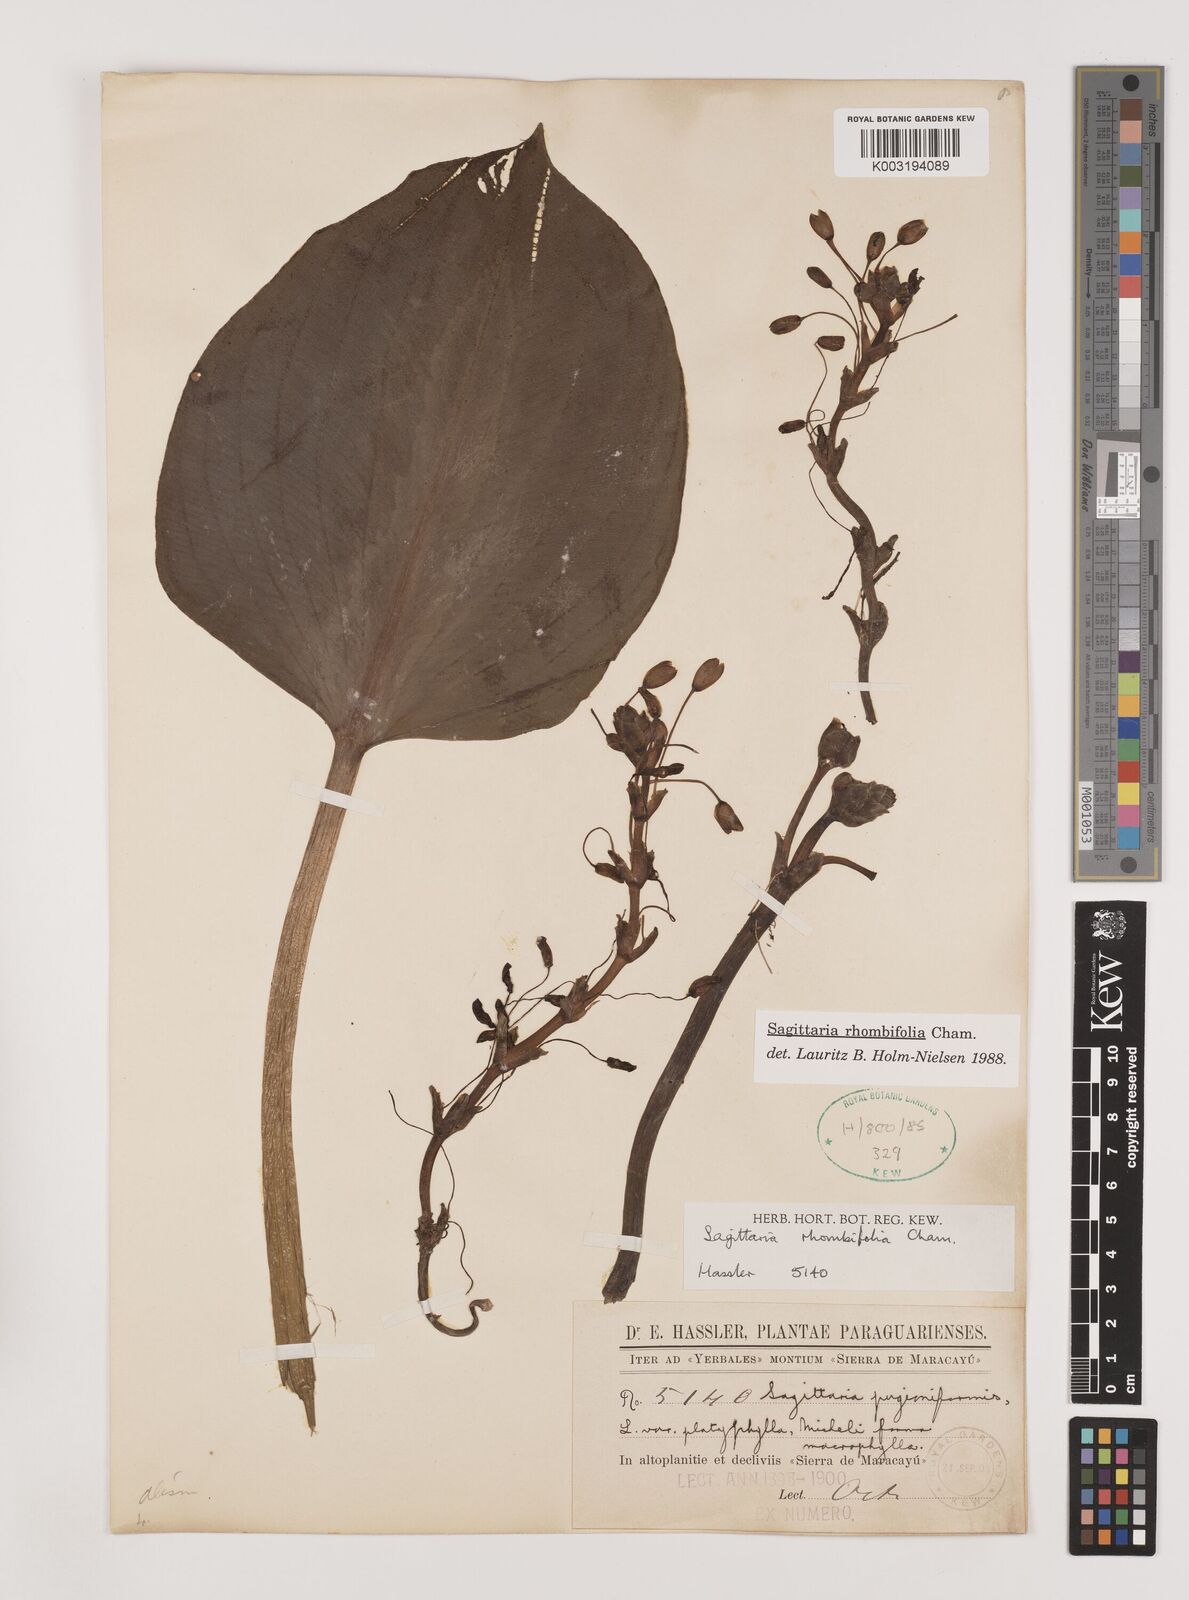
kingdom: Plantae
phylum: Tracheophyta
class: Liliopsida
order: Alismatales
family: Alismataceae
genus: Sagittaria
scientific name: Sagittaria rhombifolia
